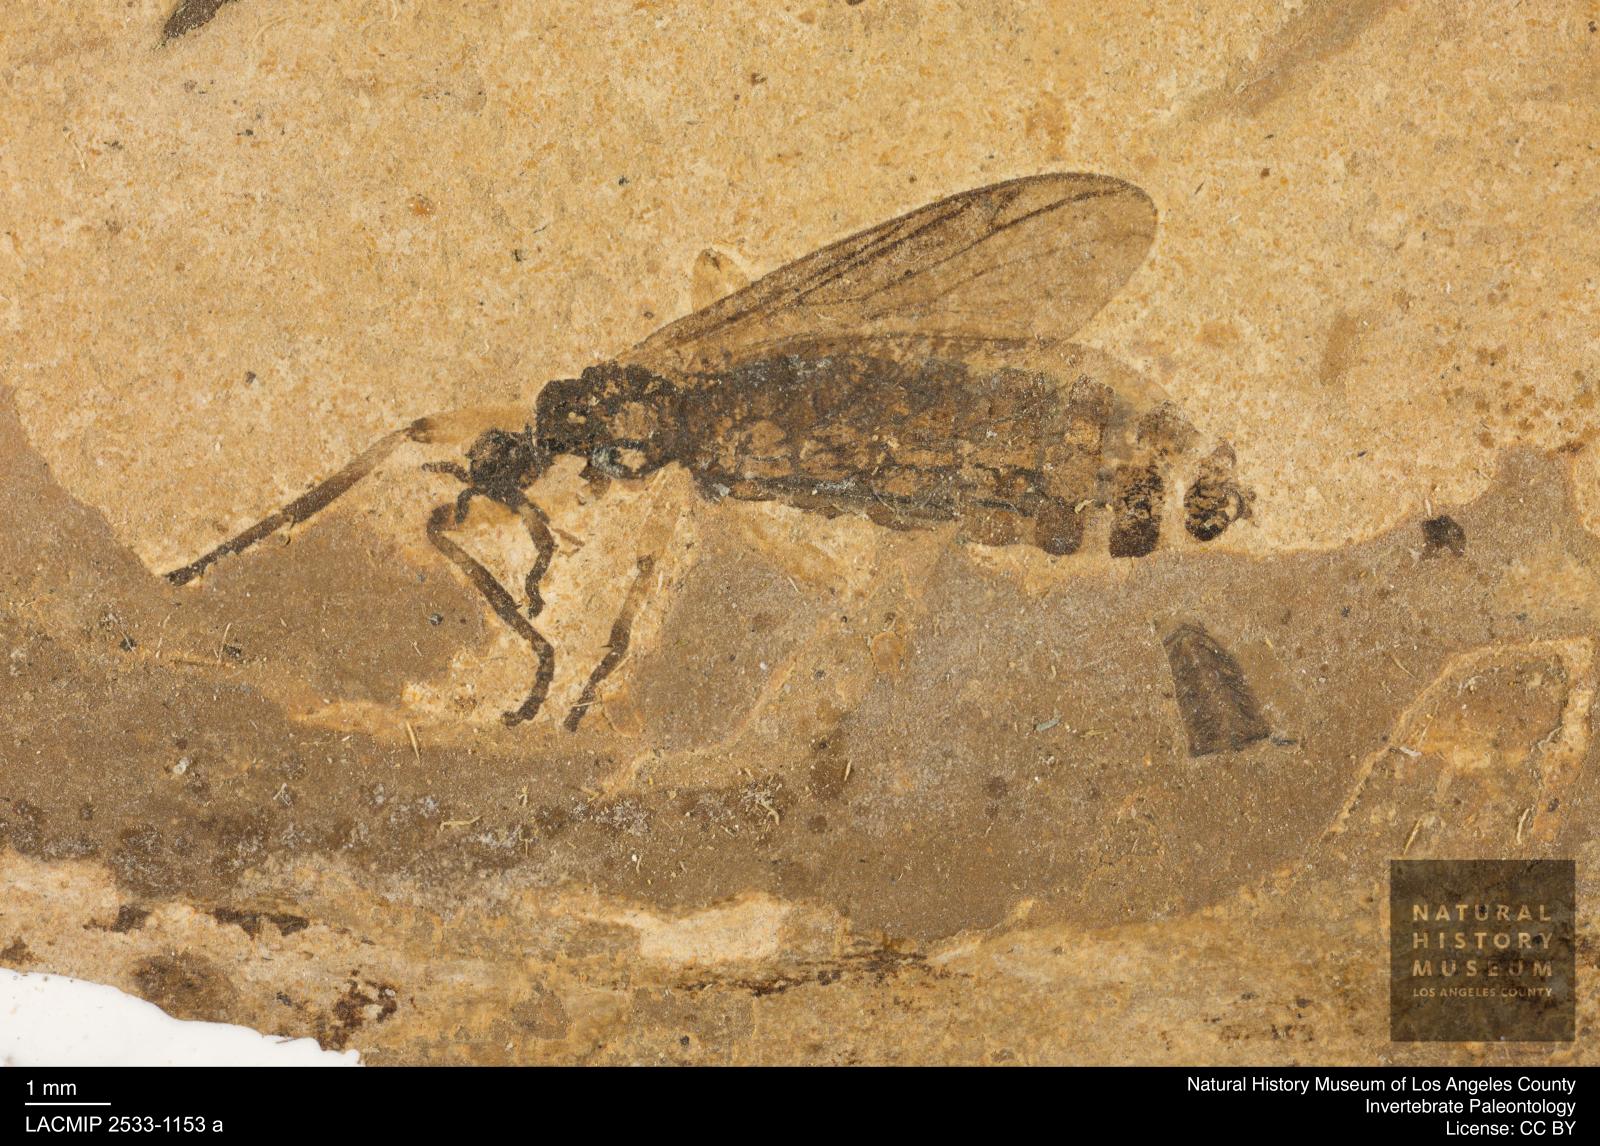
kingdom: Animalia
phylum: Arthropoda
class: Insecta
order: Diptera
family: Bibionidae
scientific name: Bibionidae
